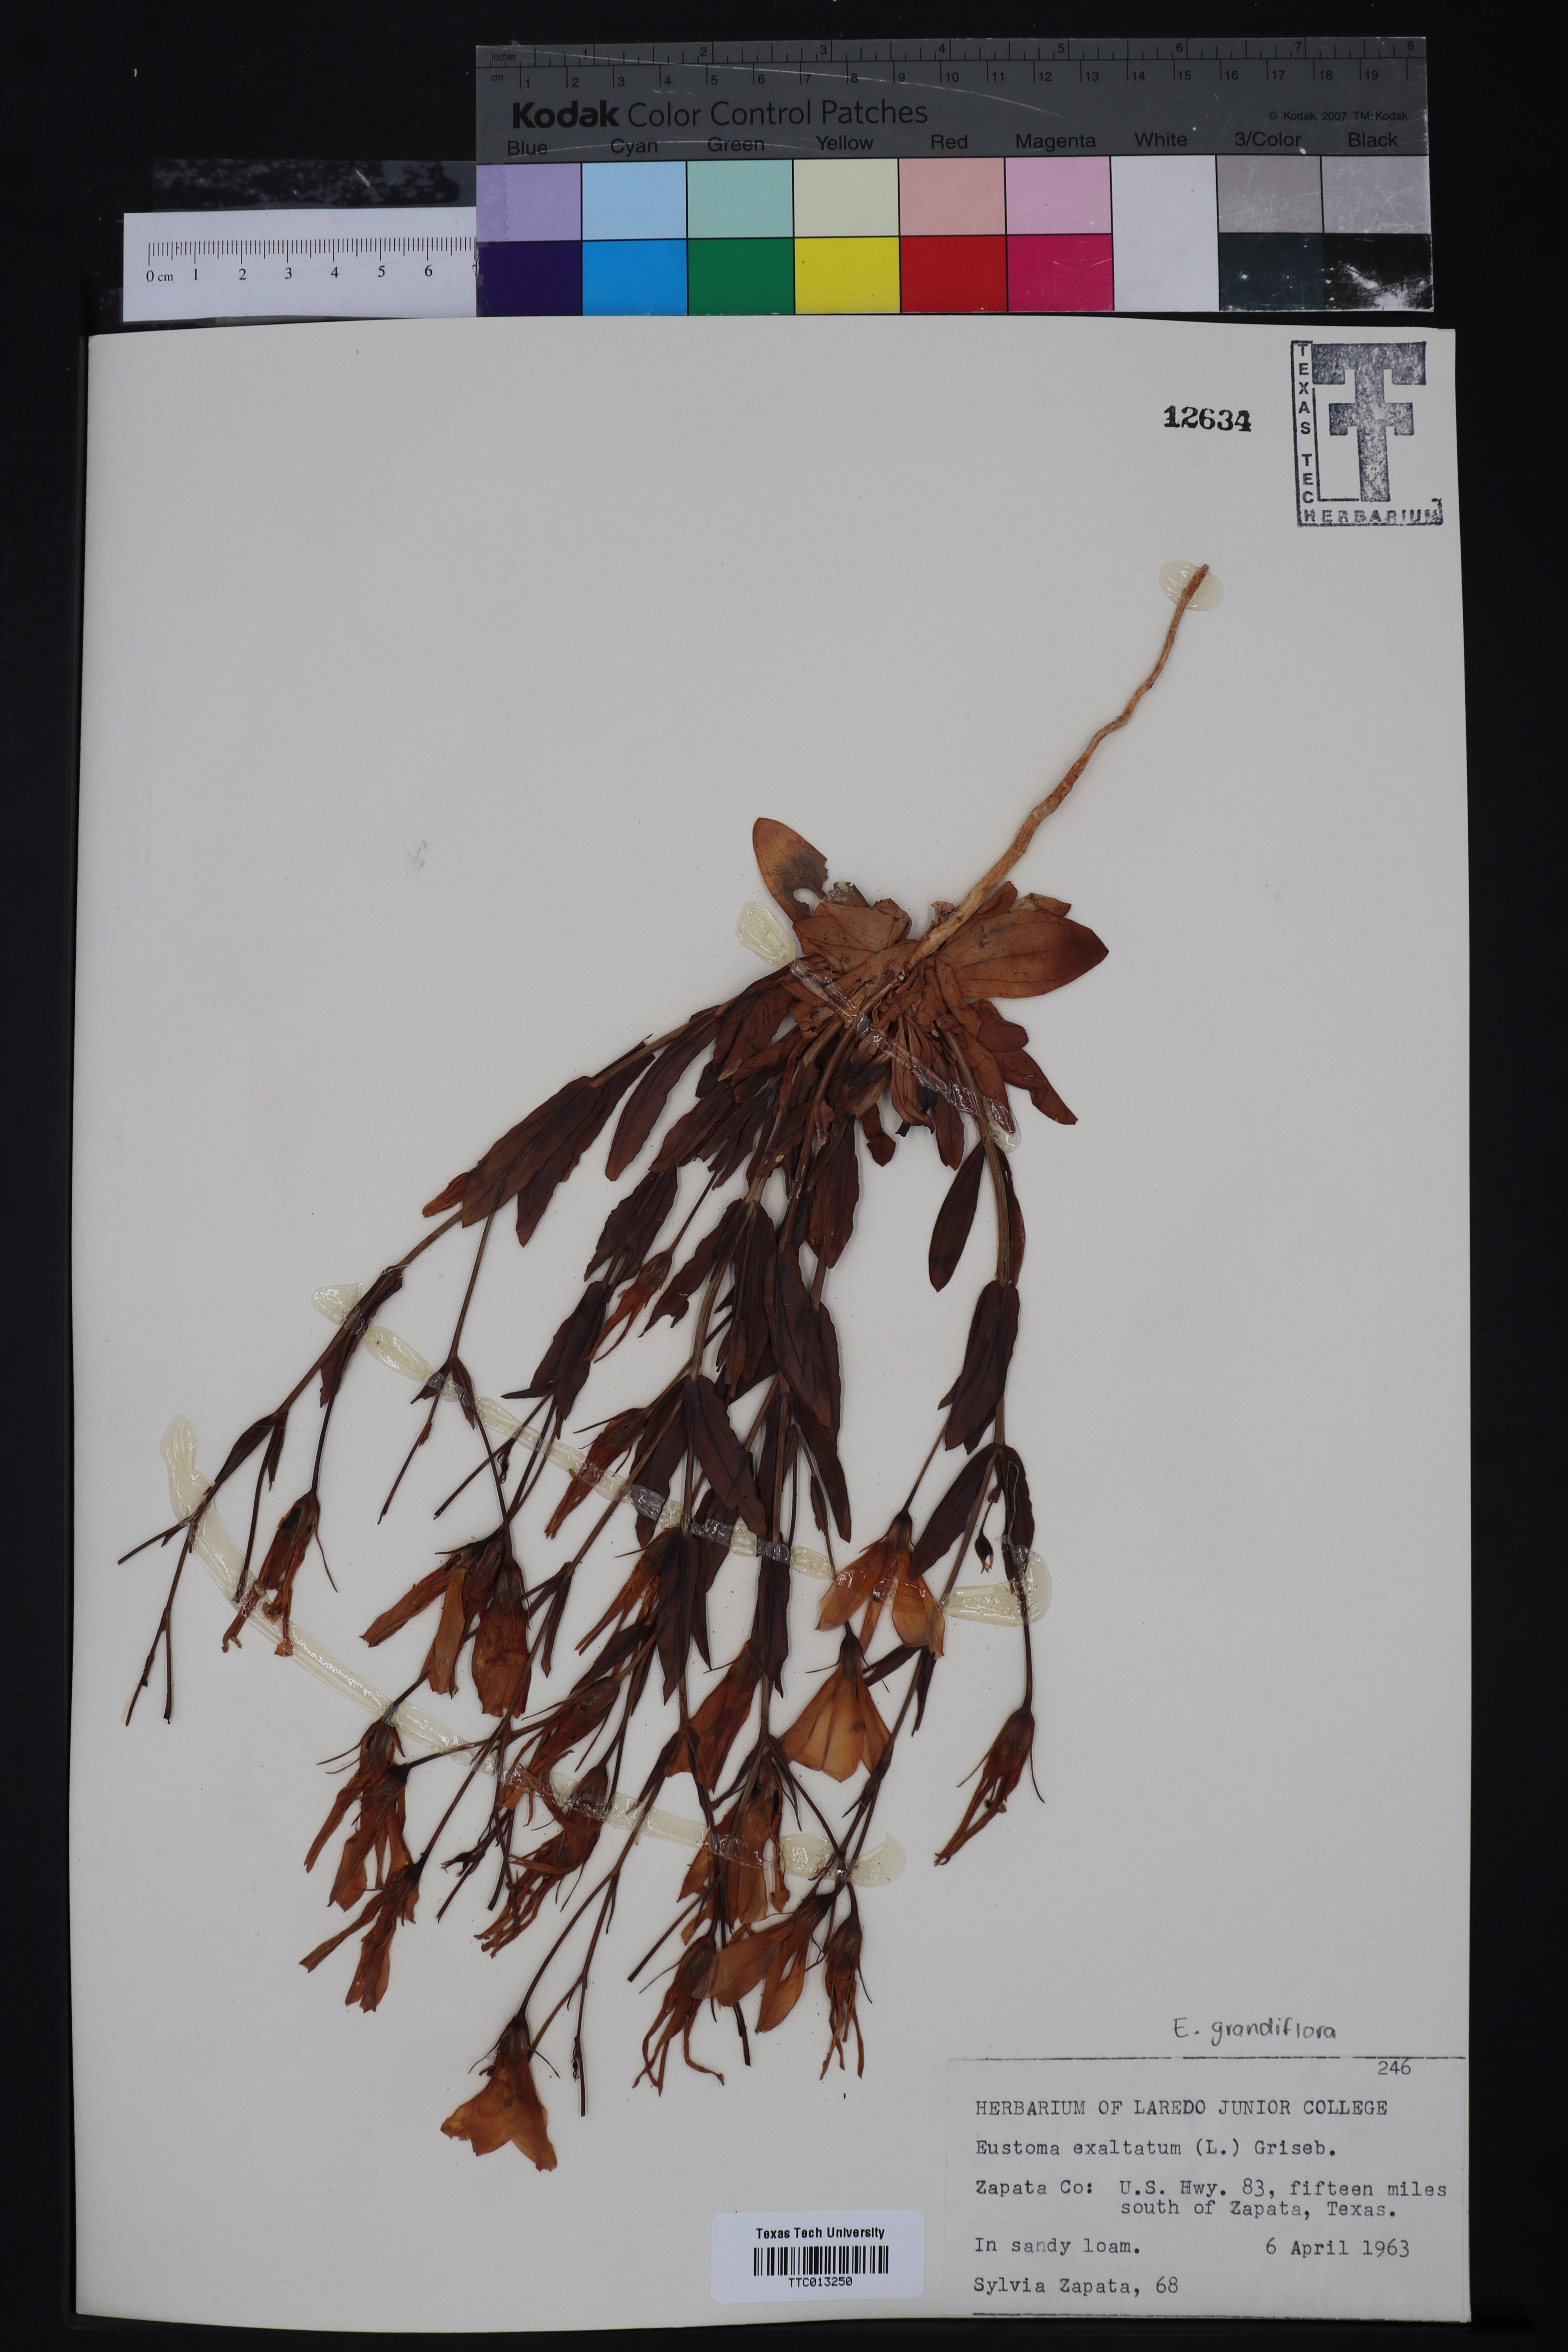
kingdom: Plantae
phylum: Tracheophyta
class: Magnoliopsida
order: Gentianales
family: Gentianaceae
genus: Eustoma
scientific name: Eustoma exaltatum
